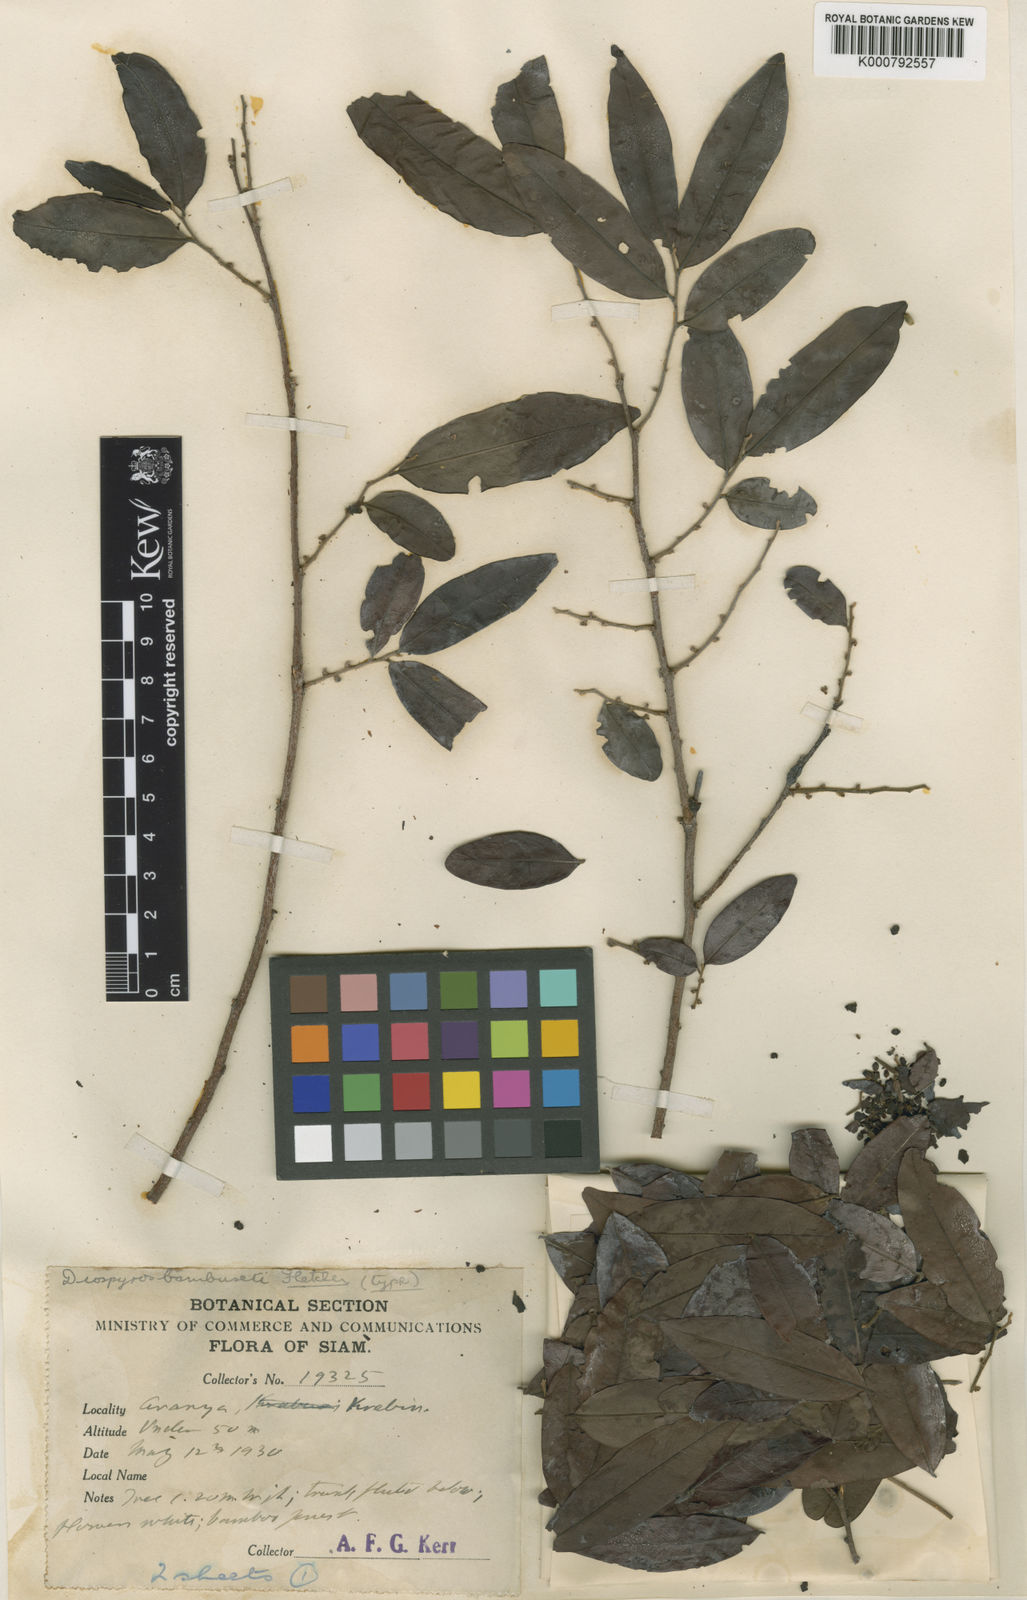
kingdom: Plantae
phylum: Tracheophyta
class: Magnoliopsida
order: Ericales
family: Ebenaceae
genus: Diospyros
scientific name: Diospyros bambuseti
